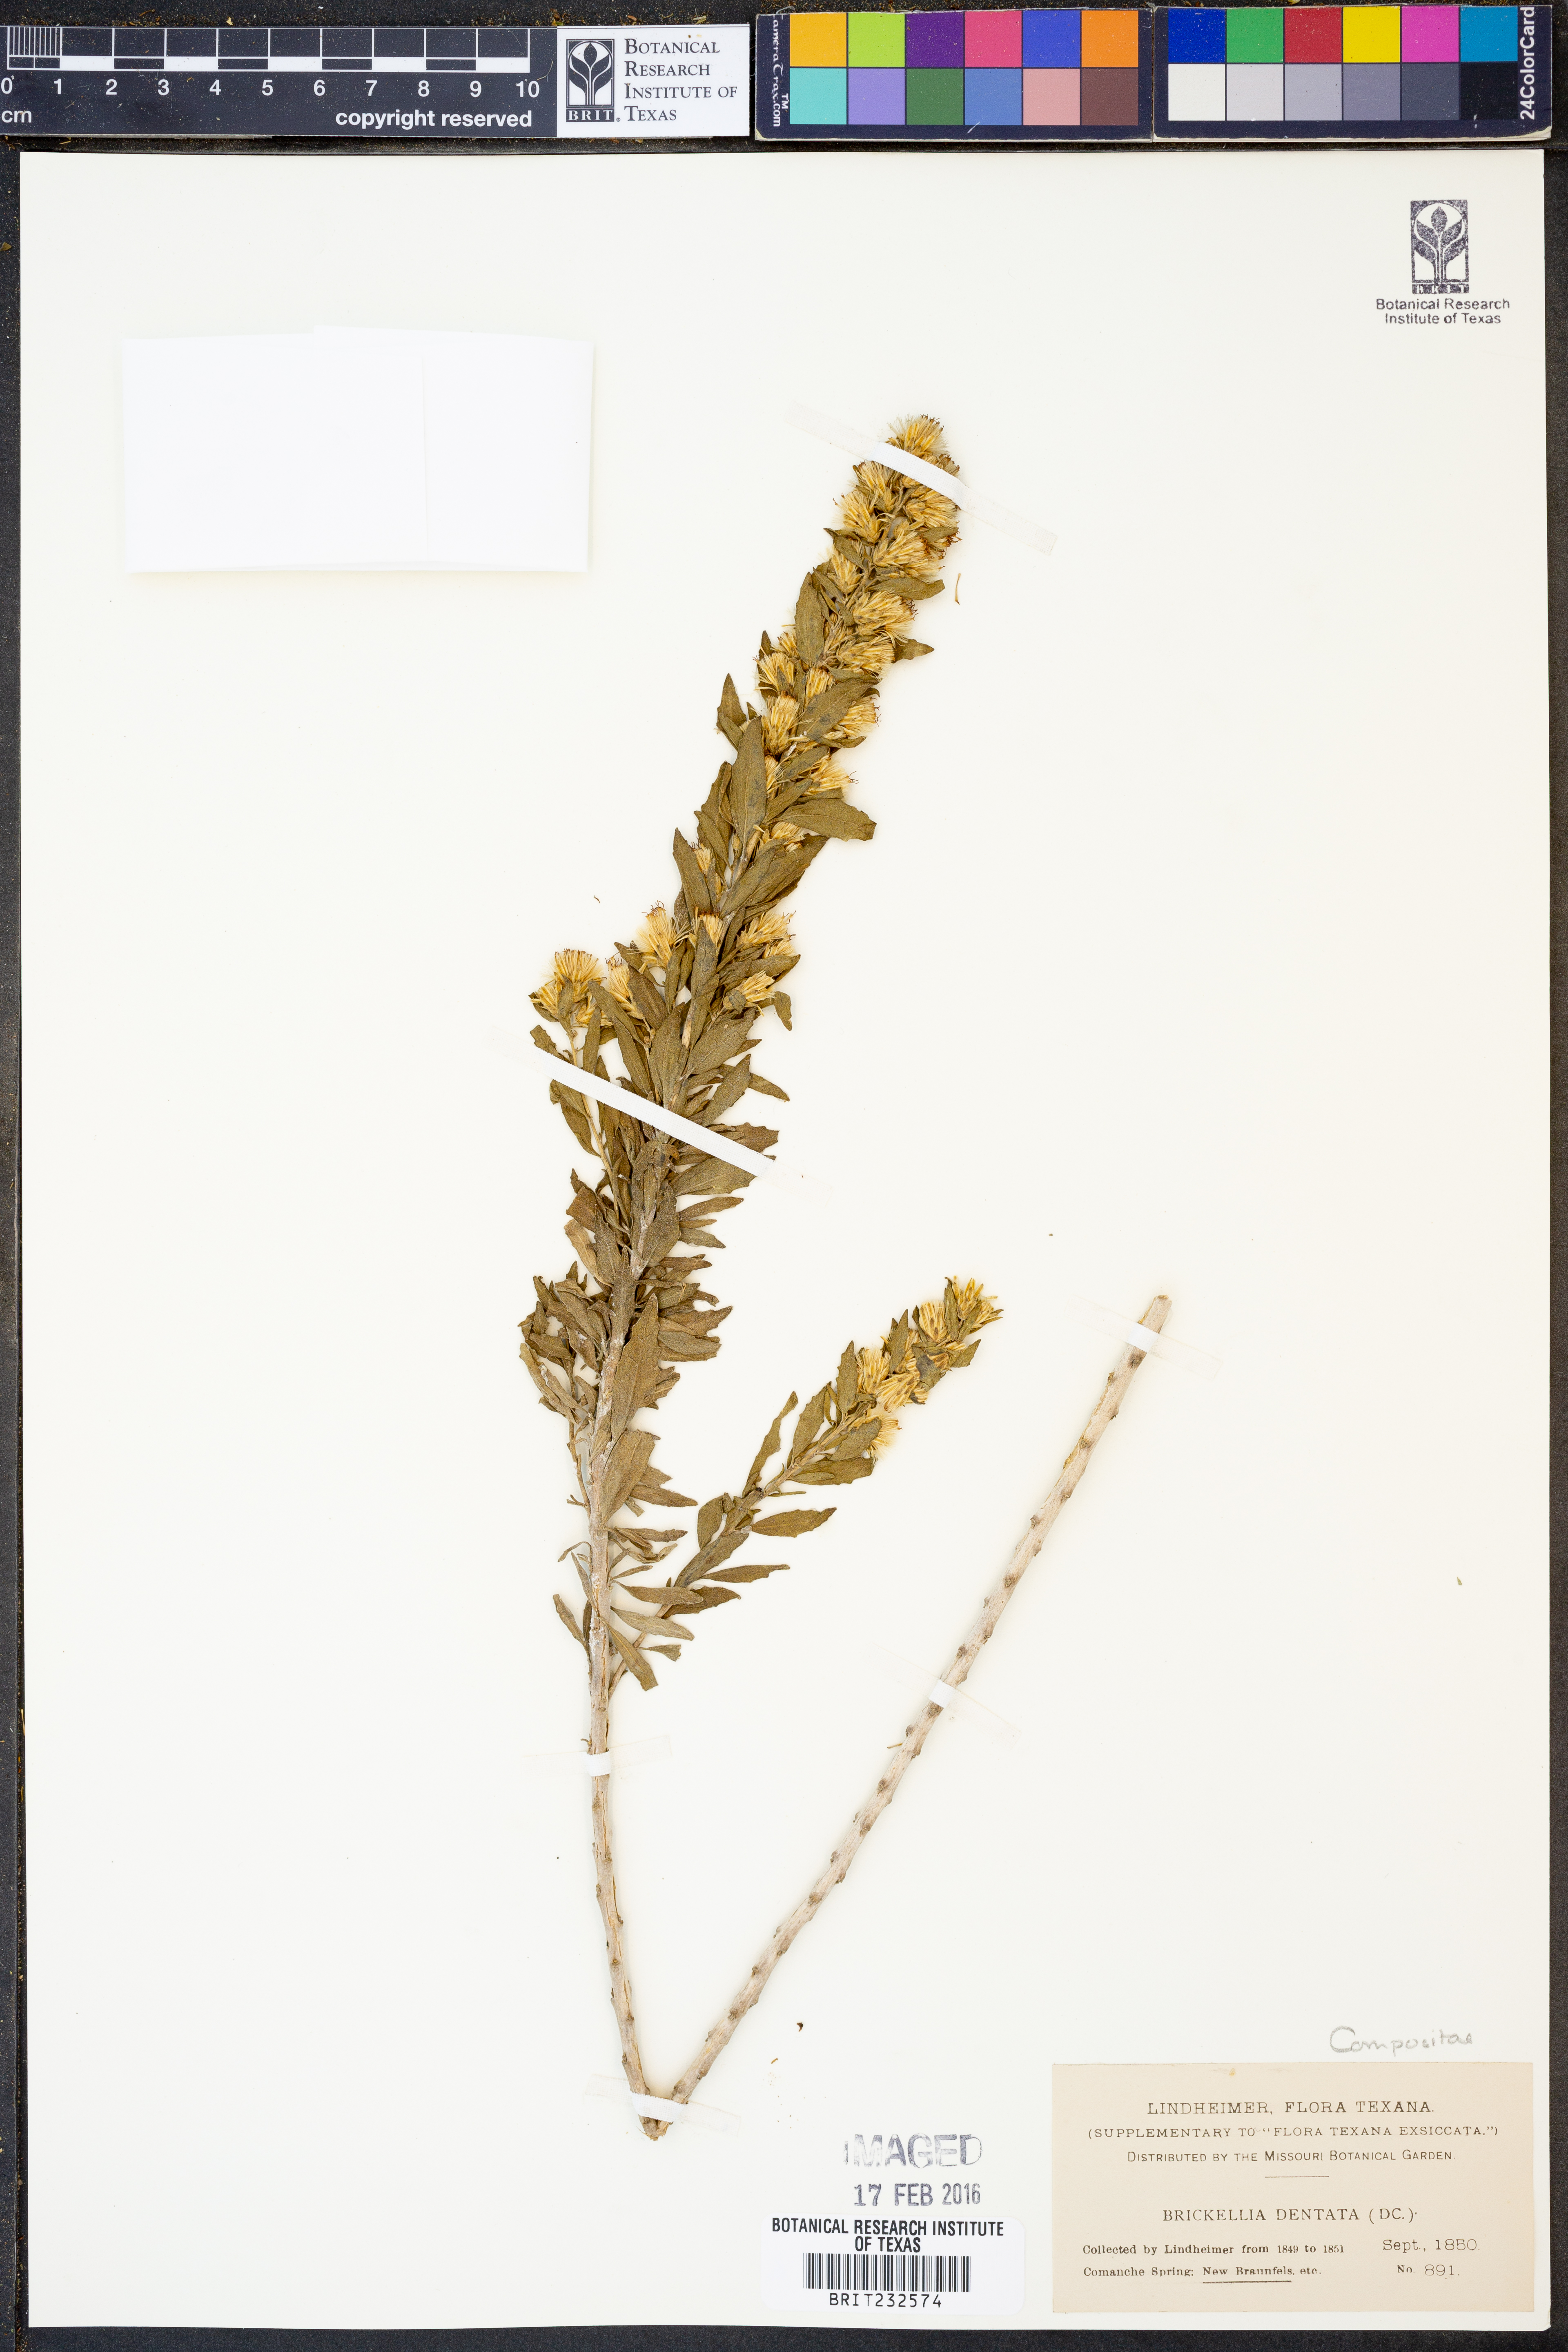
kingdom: Plantae
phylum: Tracheophyta
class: Magnoliopsida
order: Asterales
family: Asteraceae
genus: Brickellia
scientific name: Brickellia dentata
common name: Leafy brickellbush
